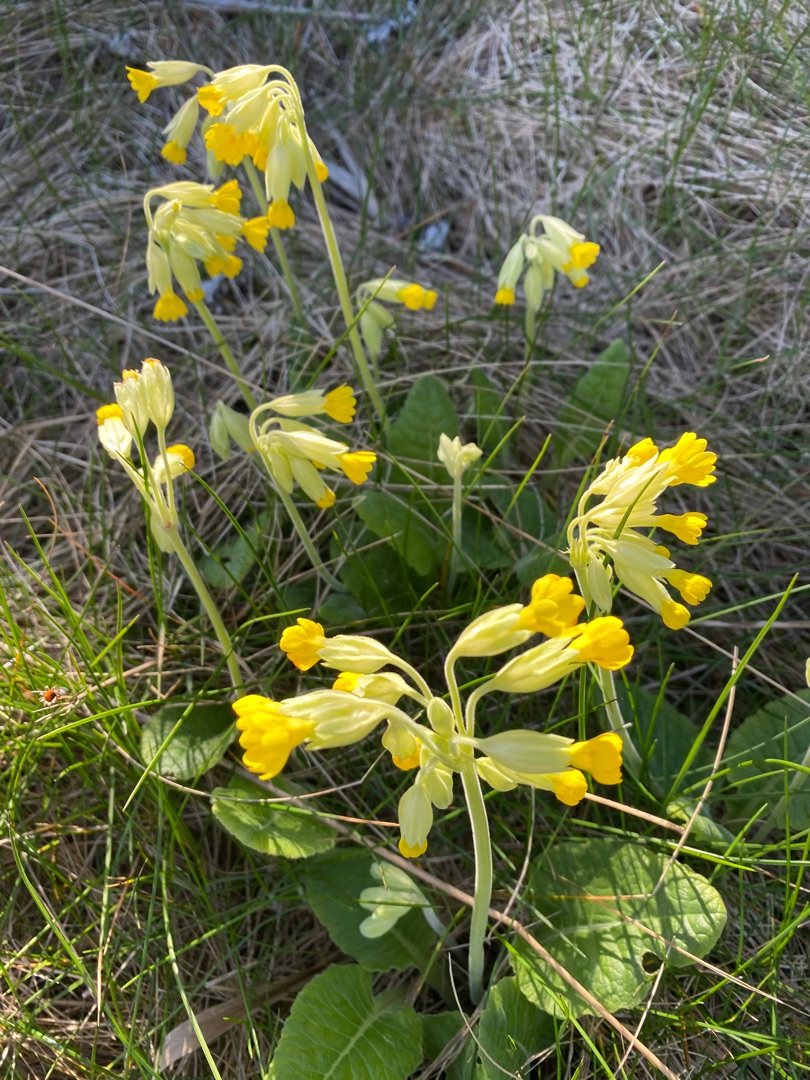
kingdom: Plantae
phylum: Tracheophyta
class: Magnoliopsida
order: Ericales
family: Primulaceae
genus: Primula
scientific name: Primula veris
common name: Hulkravet kodriver
